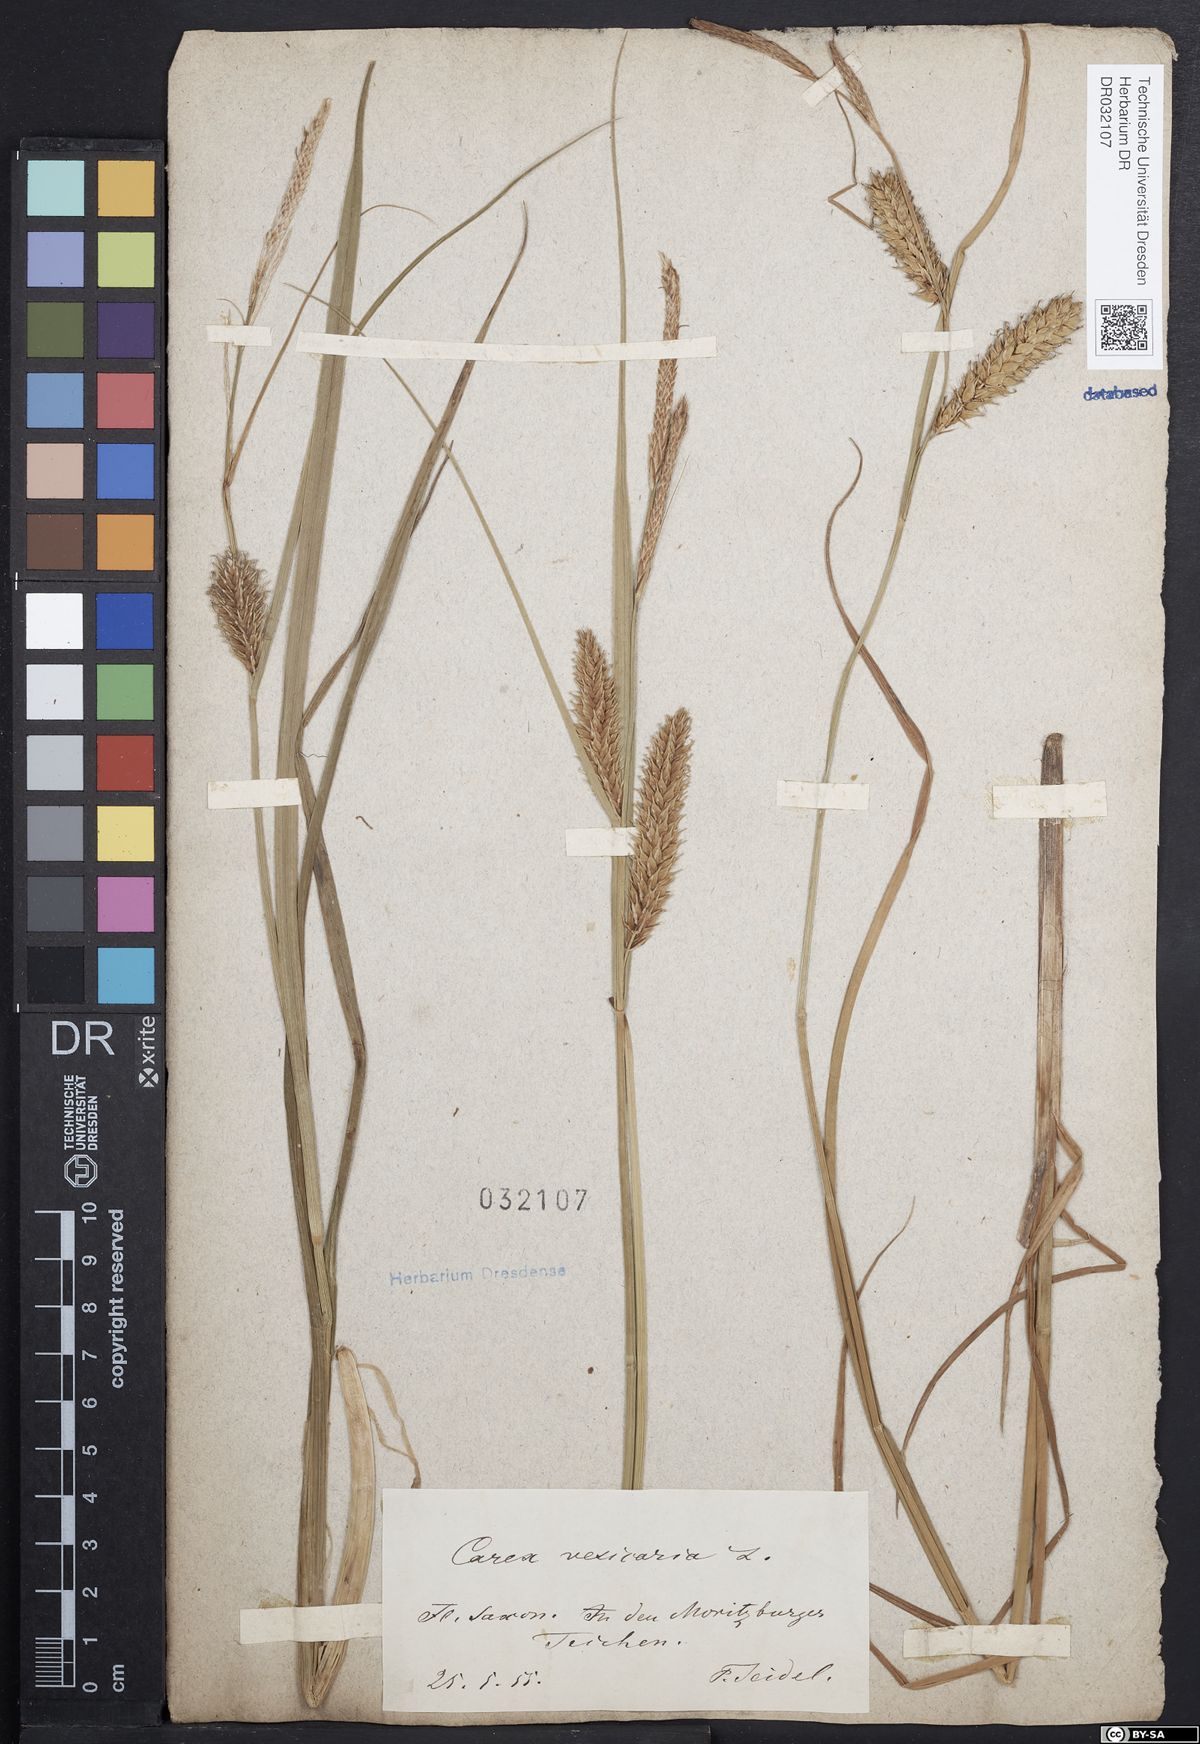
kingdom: Plantae
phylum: Tracheophyta
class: Liliopsida
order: Poales
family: Cyperaceae
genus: Carex
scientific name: Carex vesicaria
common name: Bladder-sedge
